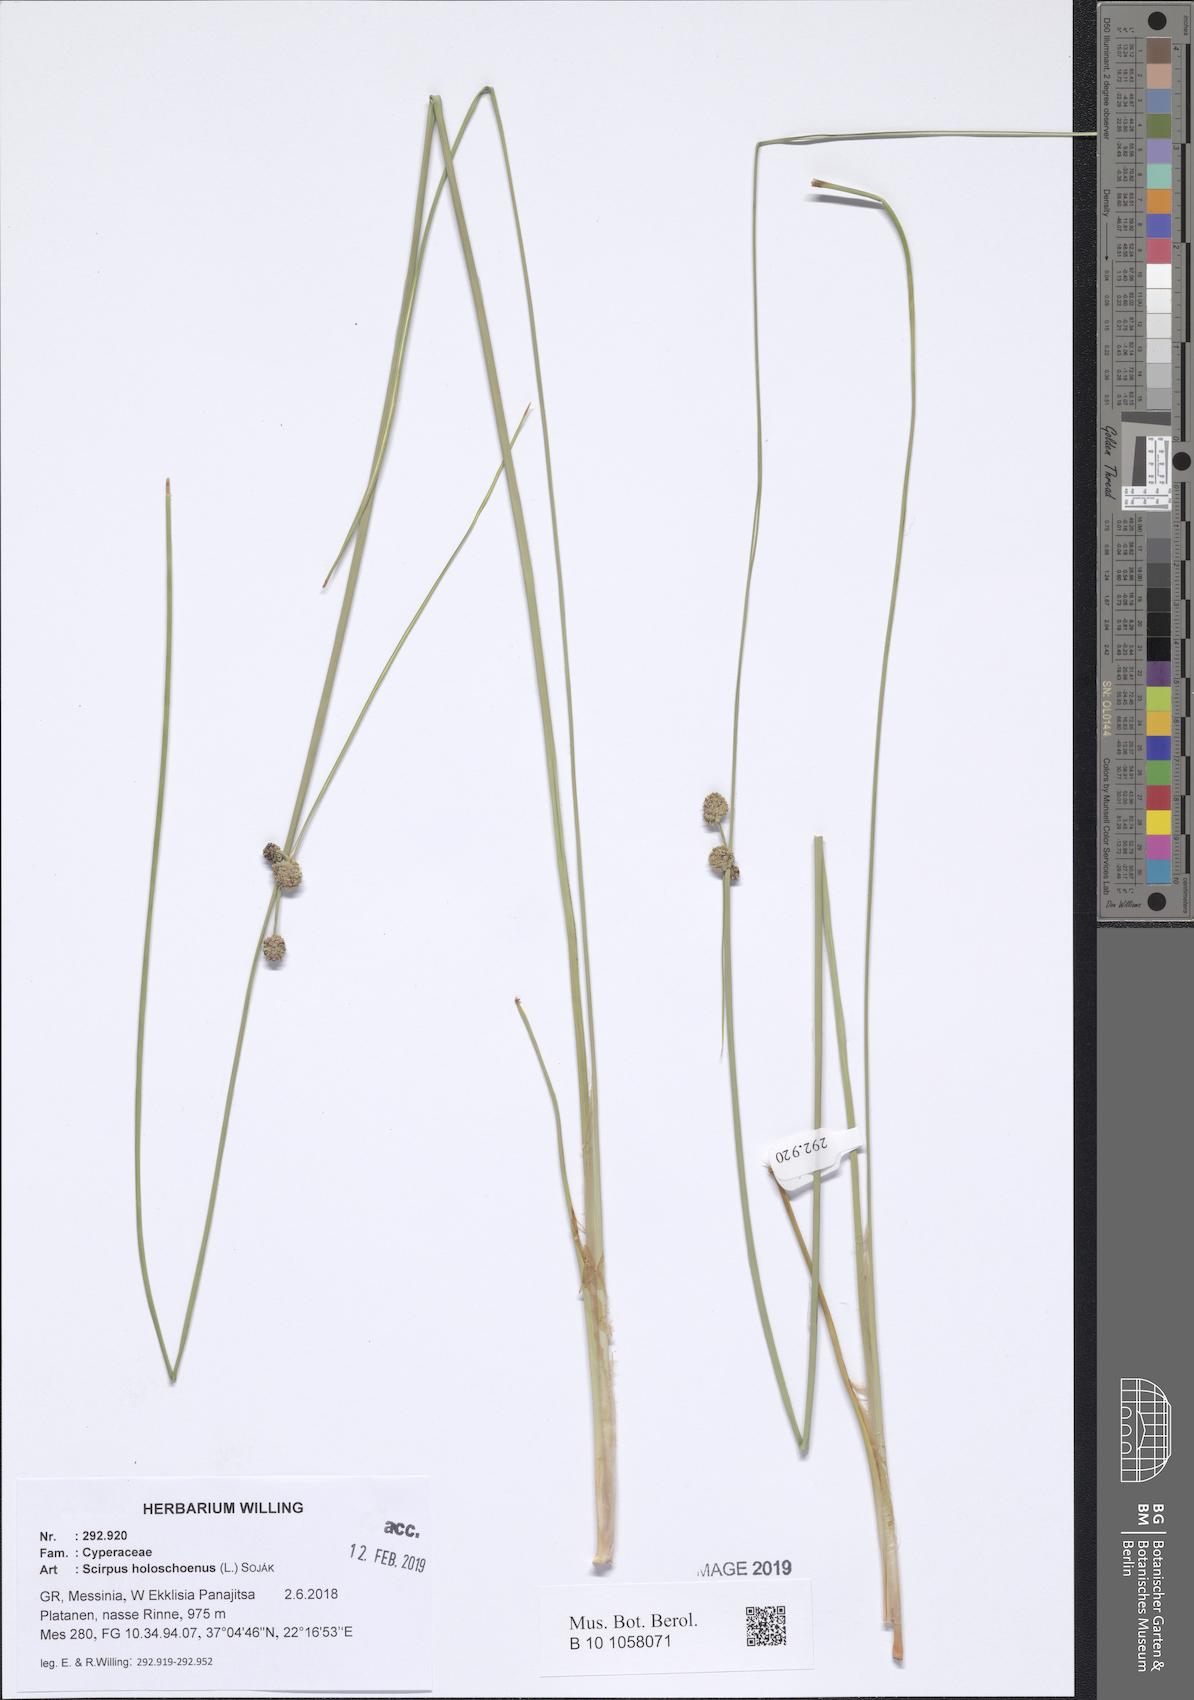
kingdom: Plantae
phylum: Tracheophyta
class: Liliopsida
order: Poales
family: Cyperaceae
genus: Scirpoides
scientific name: Scirpoides holoschoenus
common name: Round-headed club-rush
